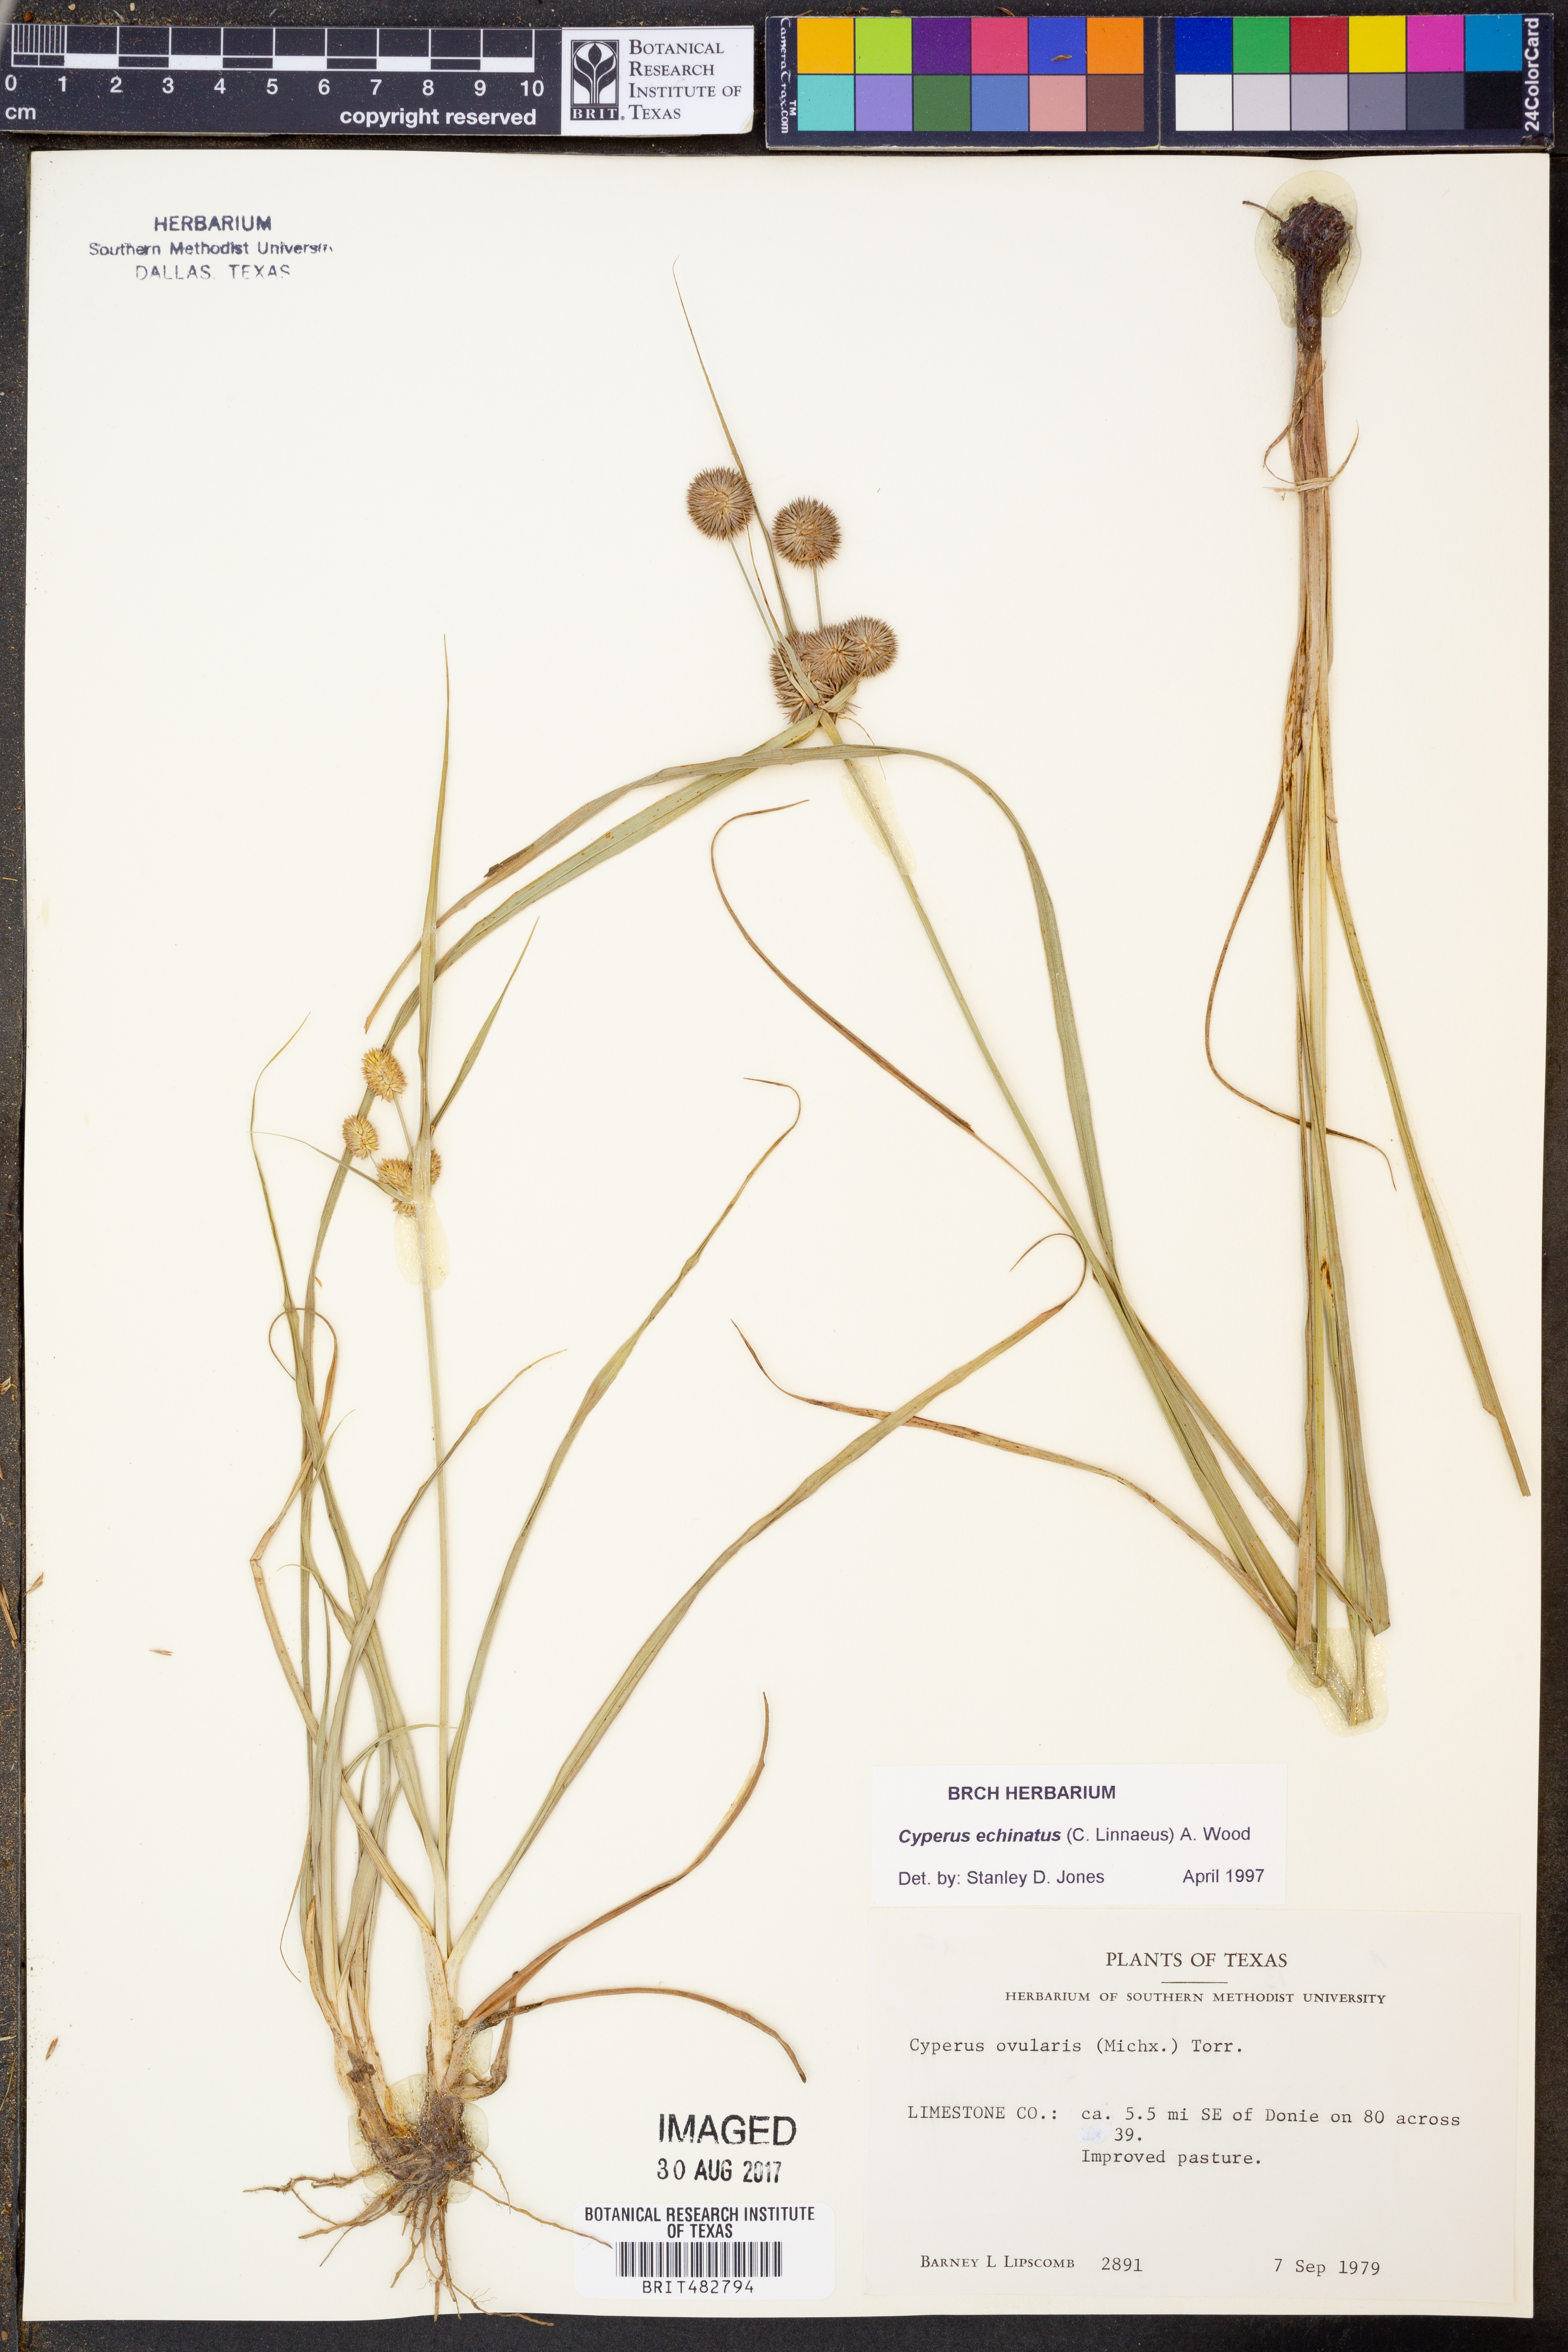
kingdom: Plantae
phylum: Tracheophyta
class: Liliopsida
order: Poales
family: Cyperaceae
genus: Cyperus
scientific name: Cyperus echinatus
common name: Teasel sedge
